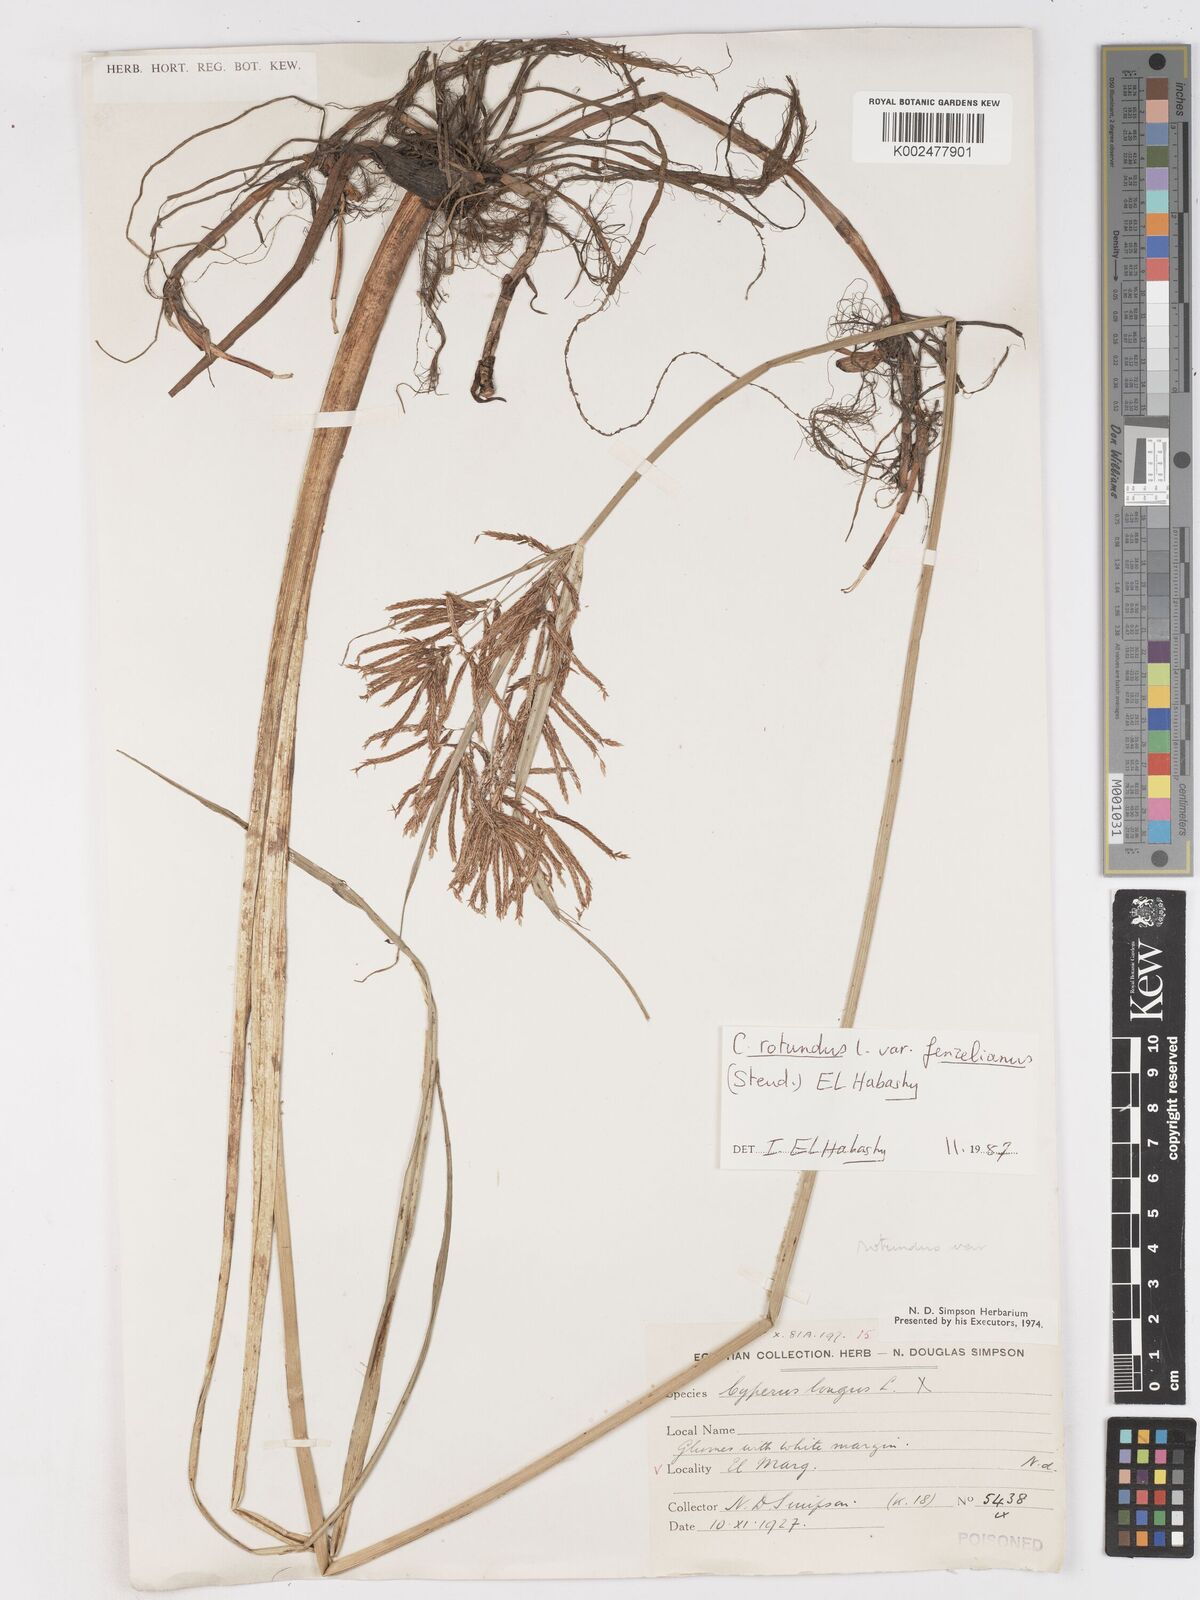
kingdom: Plantae
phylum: Tracheophyta
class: Liliopsida
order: Poales
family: Cyperaceae
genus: Cyperus
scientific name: Cyperus longus
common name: Galingale
